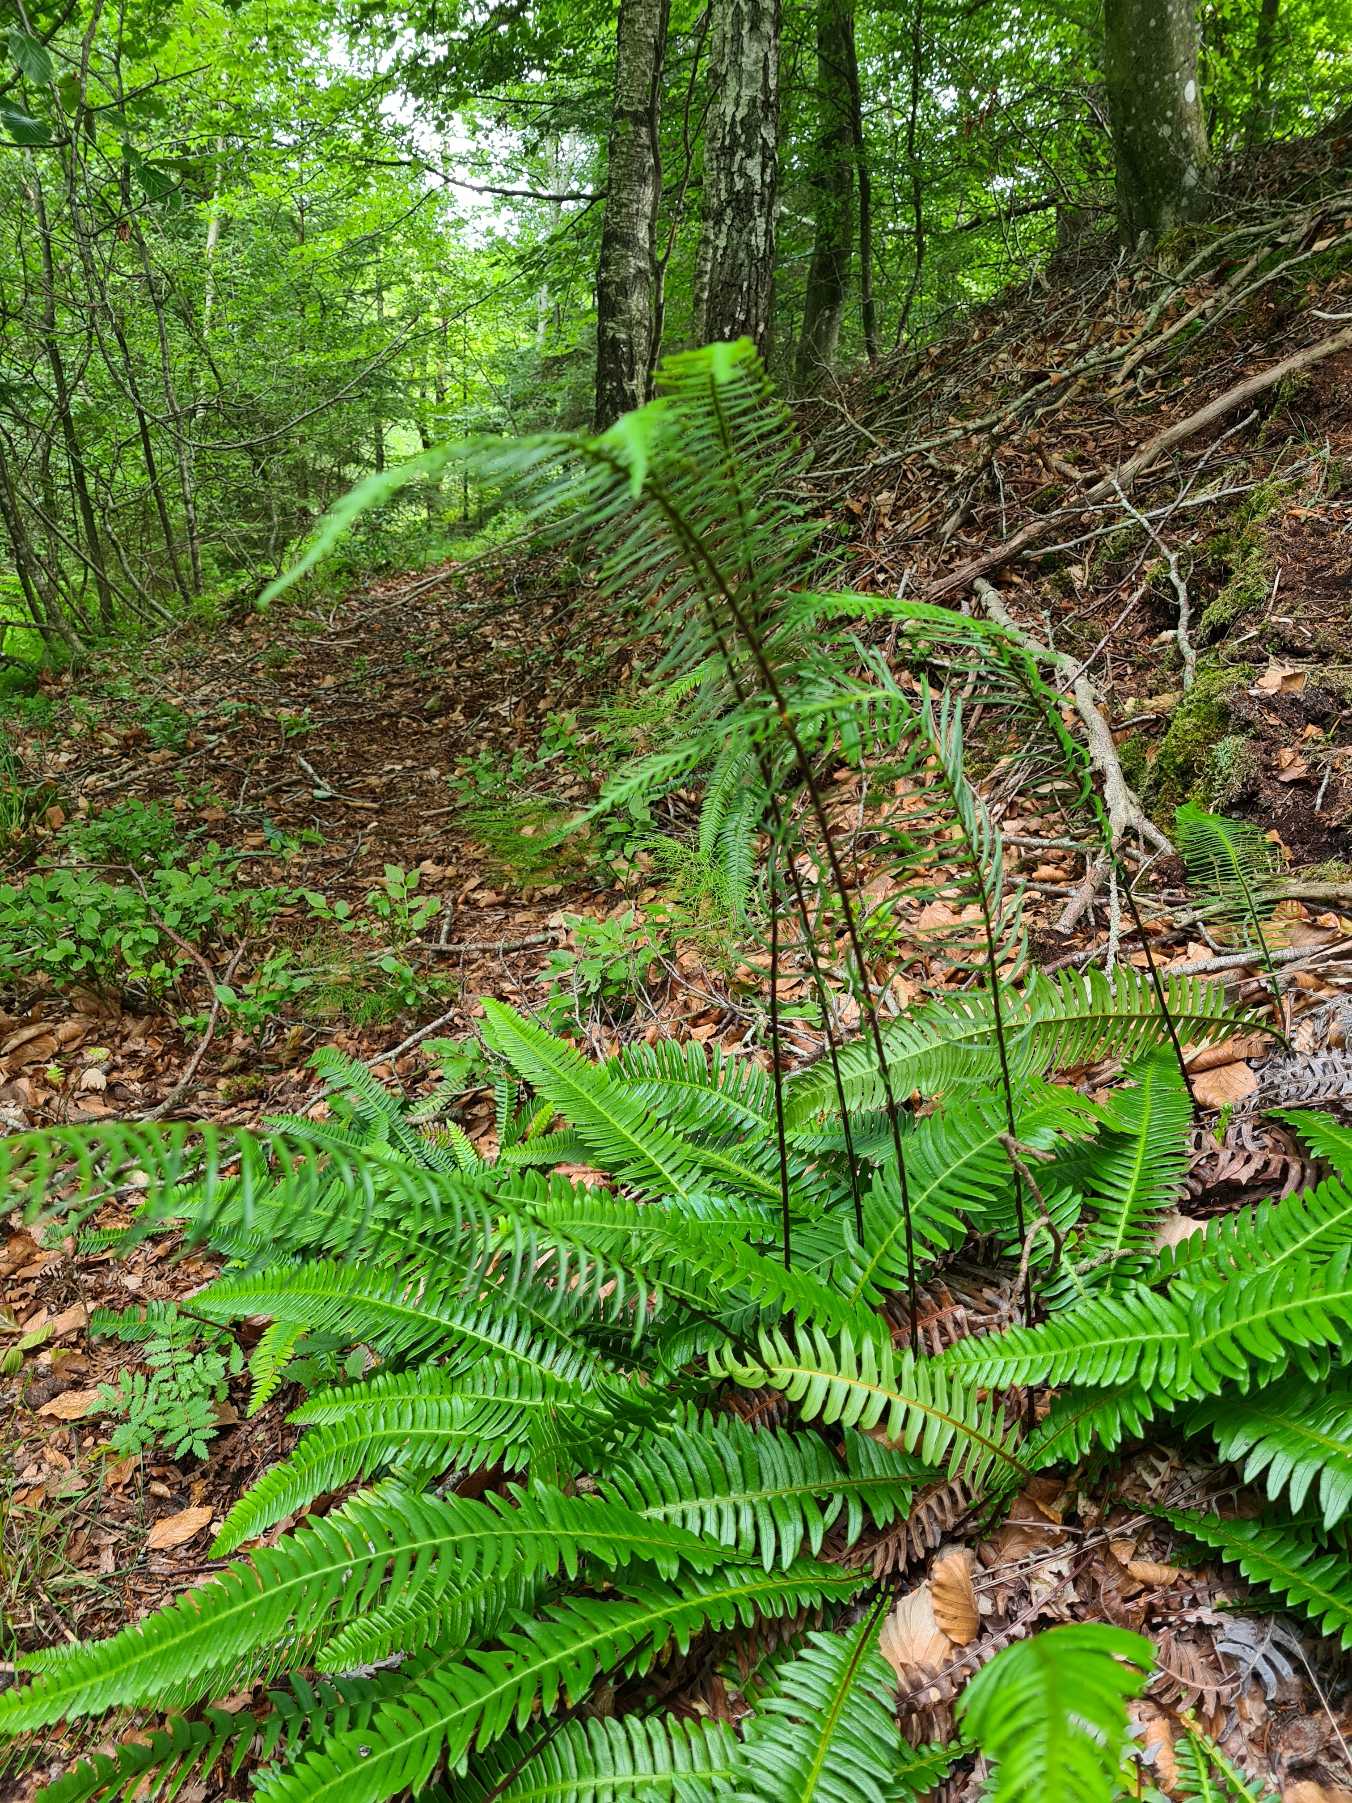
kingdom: Plantae
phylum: Tracheophyta
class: Polypodiopsida
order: Polypodiales
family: Blechnaceae
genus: Struthiopteris
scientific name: Struthiopteris spicant
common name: Kambregne
